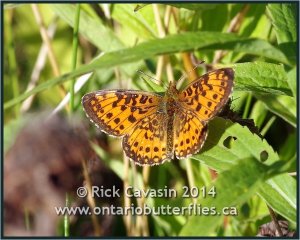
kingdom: Animalia
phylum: Arthropoda
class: Insecta
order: Lepidoptera
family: Nymphalidae
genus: Boloria
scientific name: Boloria selene
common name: Silver-bordered Fritillary
